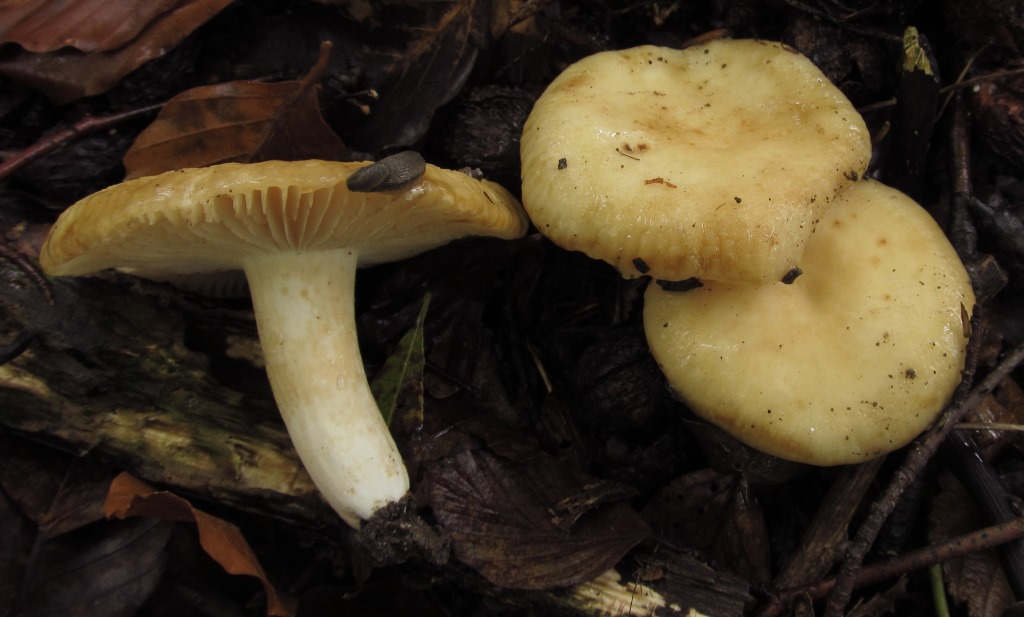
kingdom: Fungi
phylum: Basidiomycota
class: Agaricomycetes
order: Russulales
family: Russulaceae
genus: Russula
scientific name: Russula farinipes
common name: gul kam-skørhat
